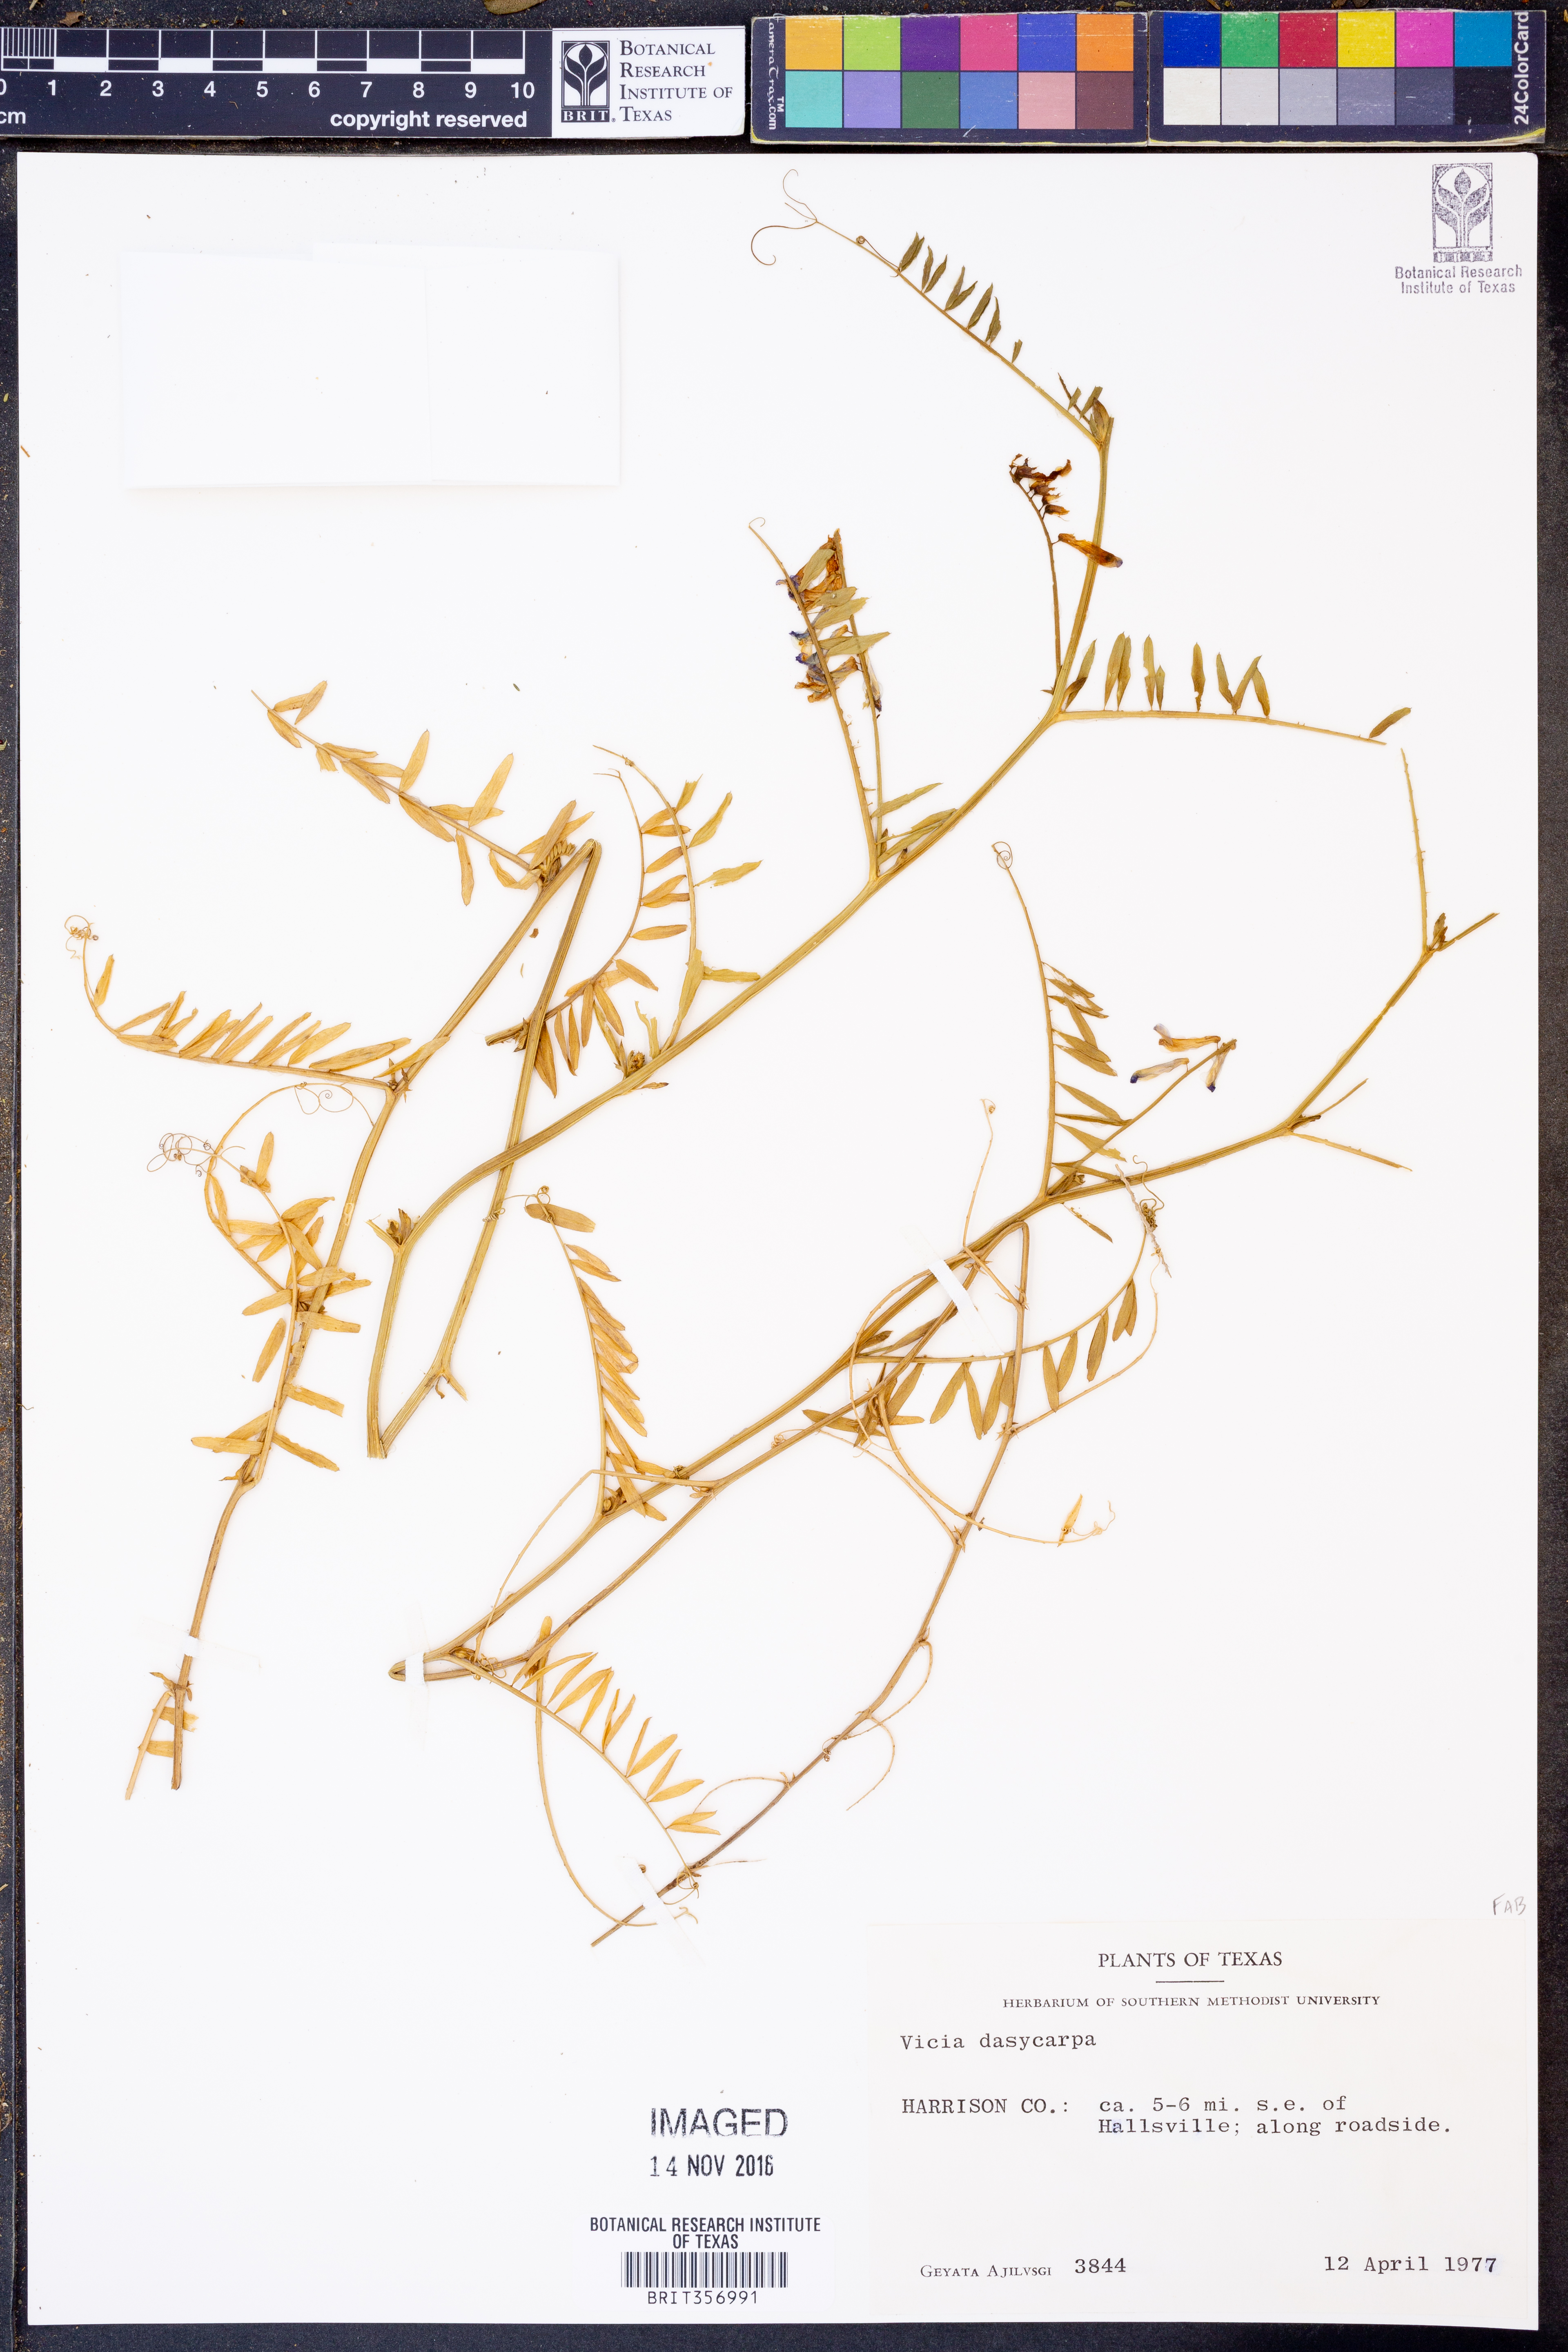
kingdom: Plantae
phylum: Tracheophyta
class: Magnoliopsida
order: Fabales
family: Fabaceae
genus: Vicia
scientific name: Vicia villosa
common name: Fodder vetch
